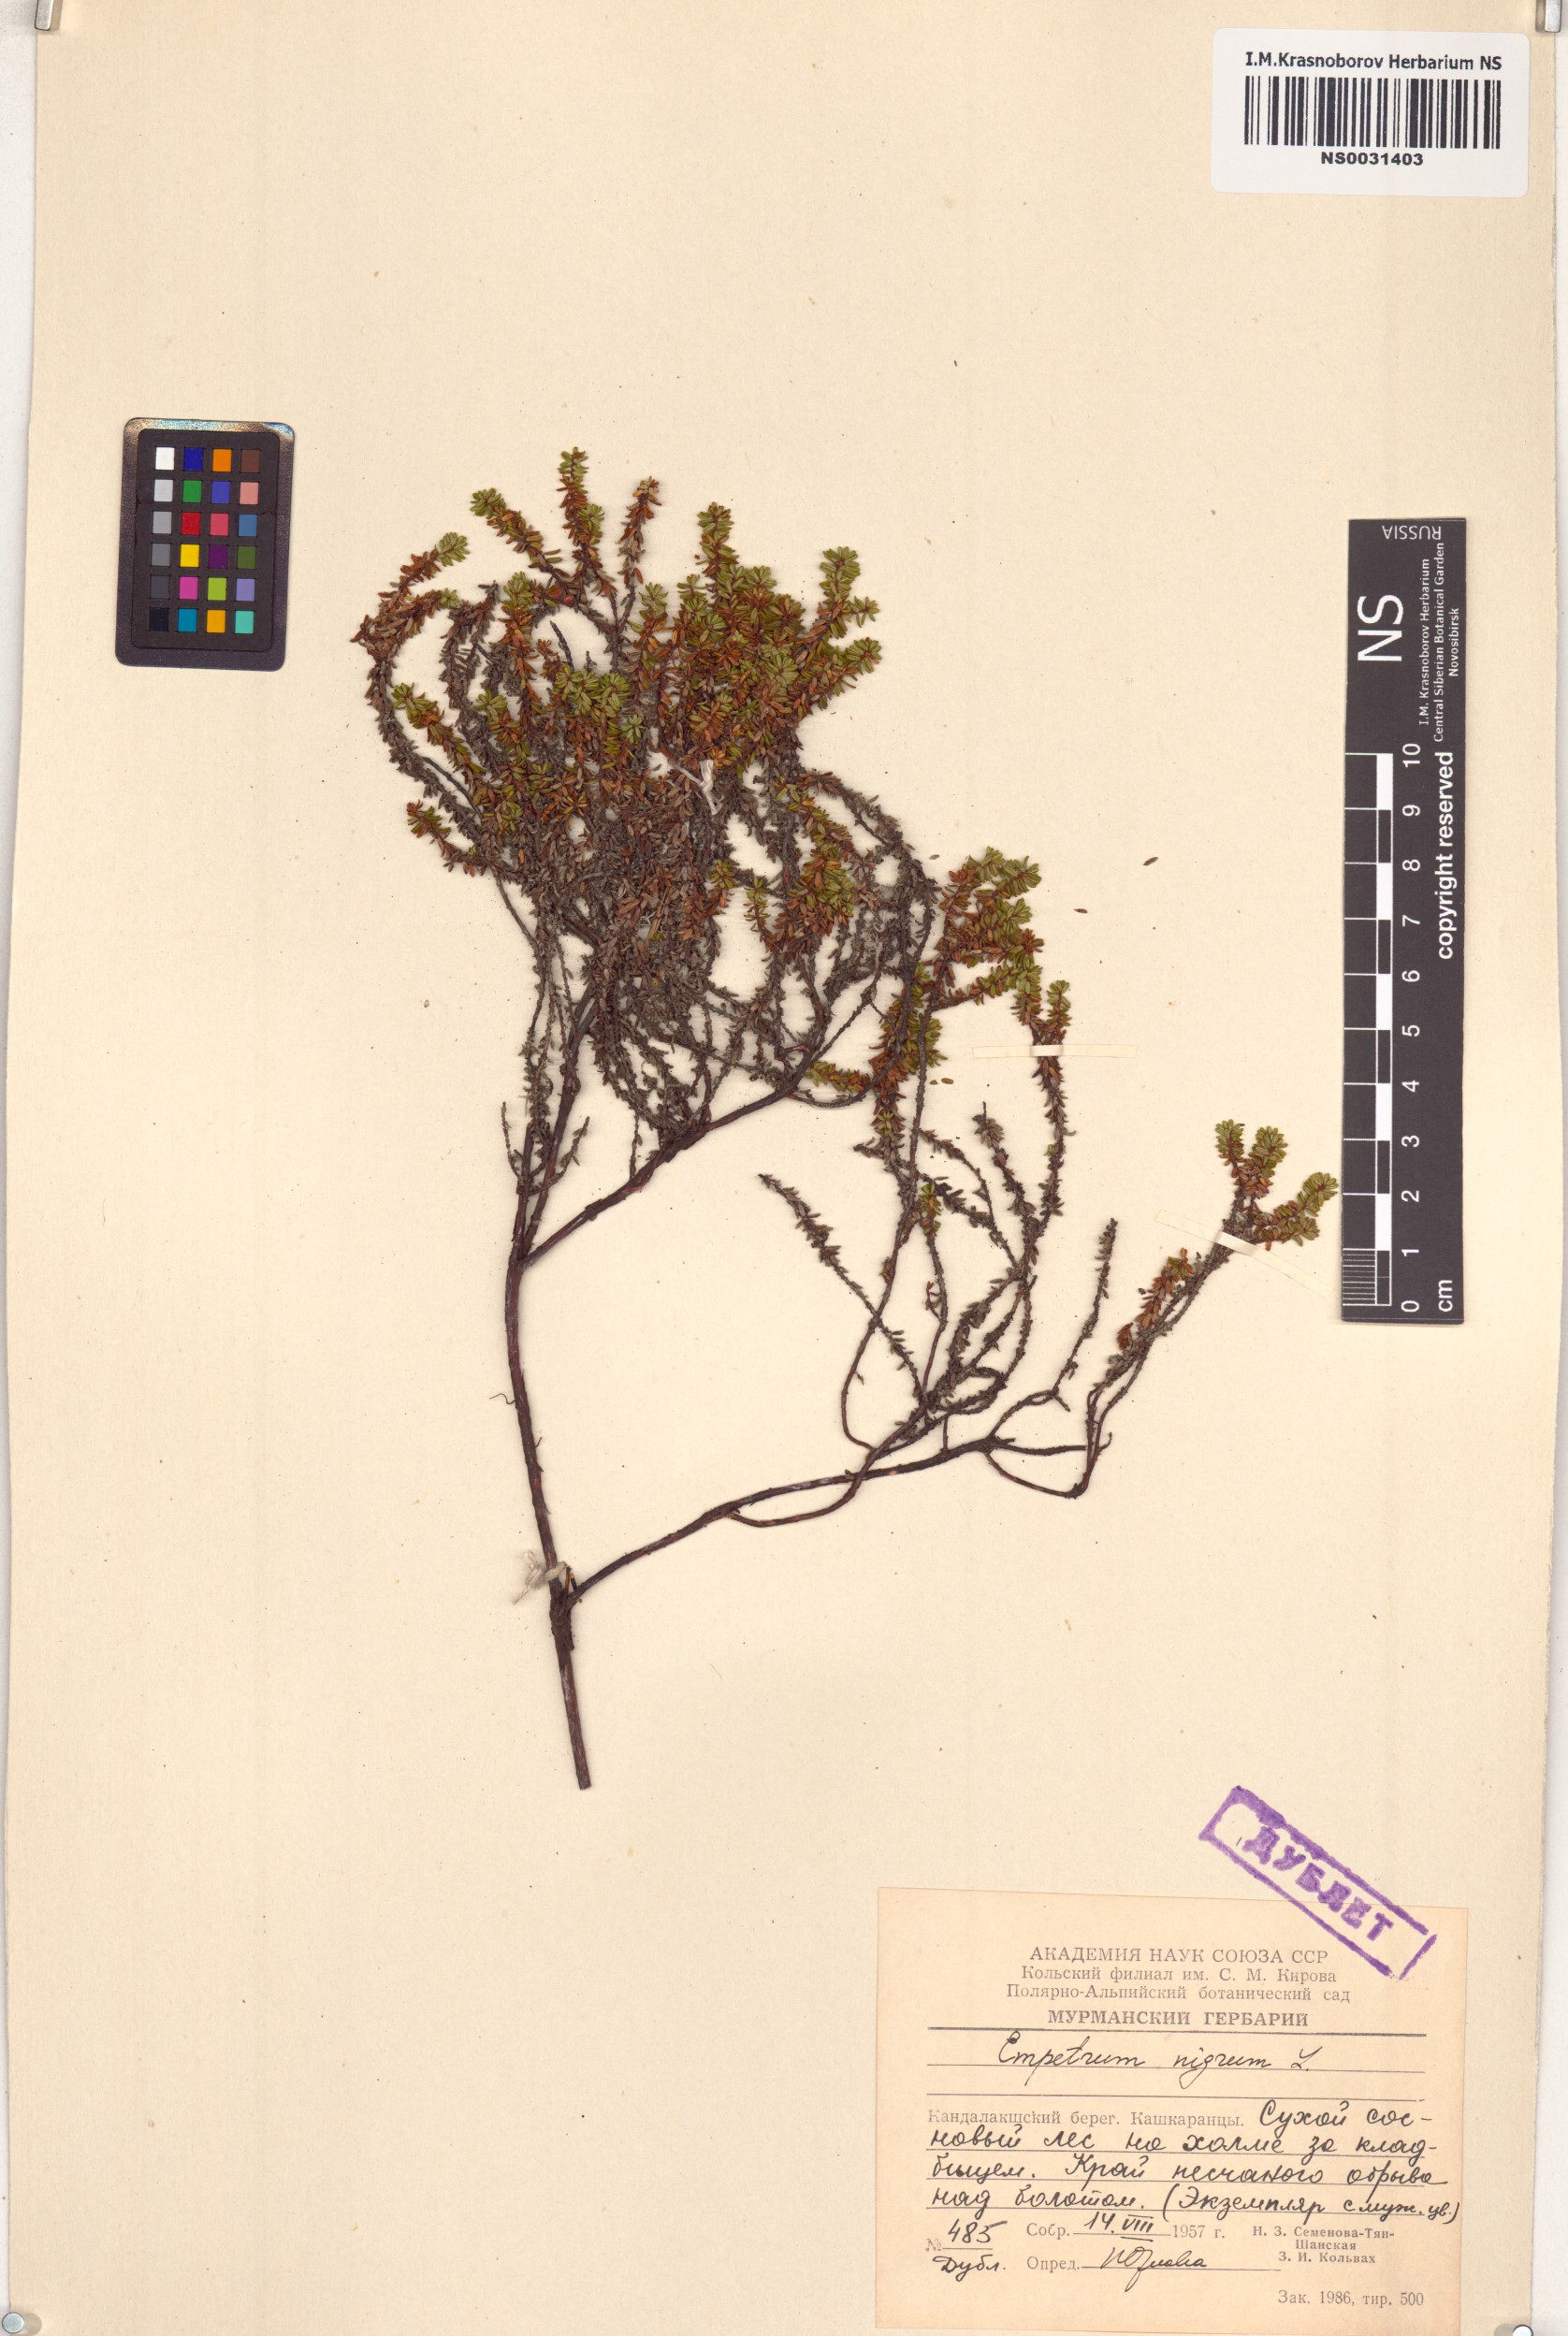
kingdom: Plantae
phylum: Tracheophyta
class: Magnoliopsida
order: Ericales
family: Ericaceae
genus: Empetrum
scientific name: Empetrum nigrum
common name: Black crowberry
